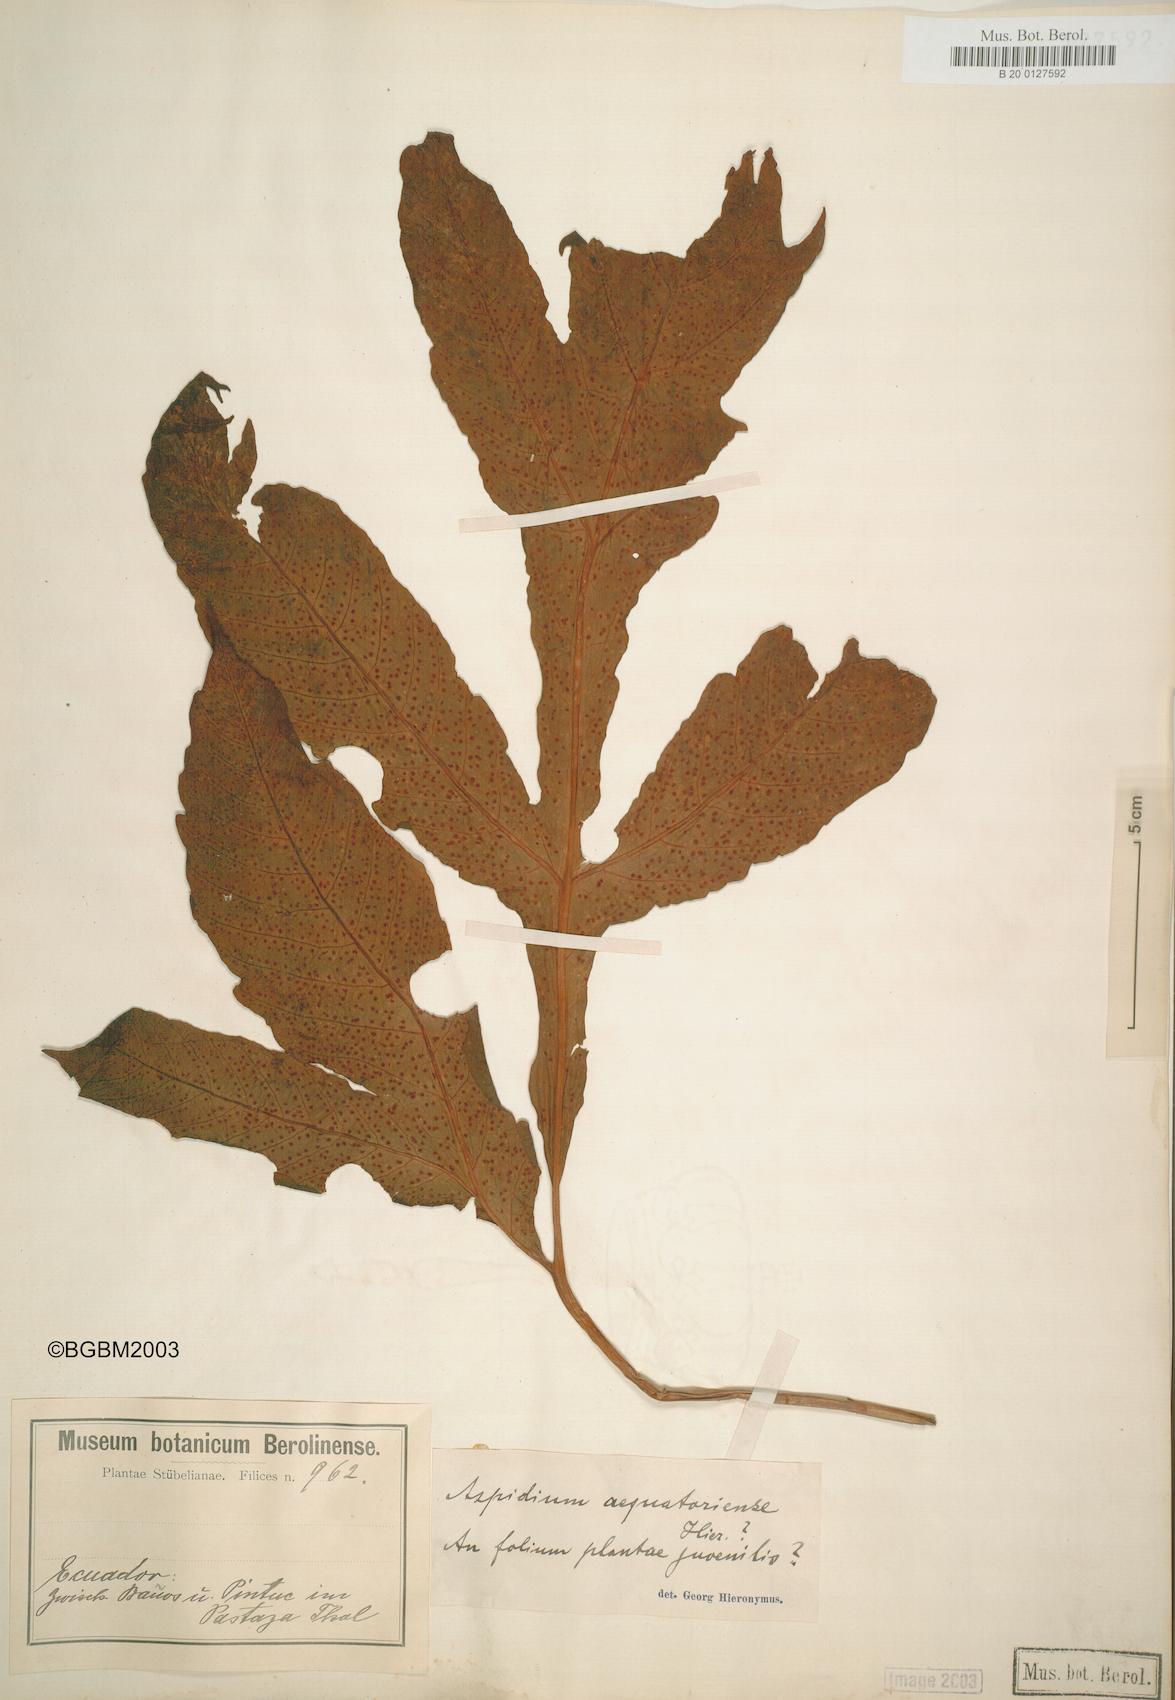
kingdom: Plantae
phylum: Tracheophyta
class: Polypodiopsida
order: Polypodiales
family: Tectariaceae
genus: Tectaria
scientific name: Tectaria aequatoriensis
